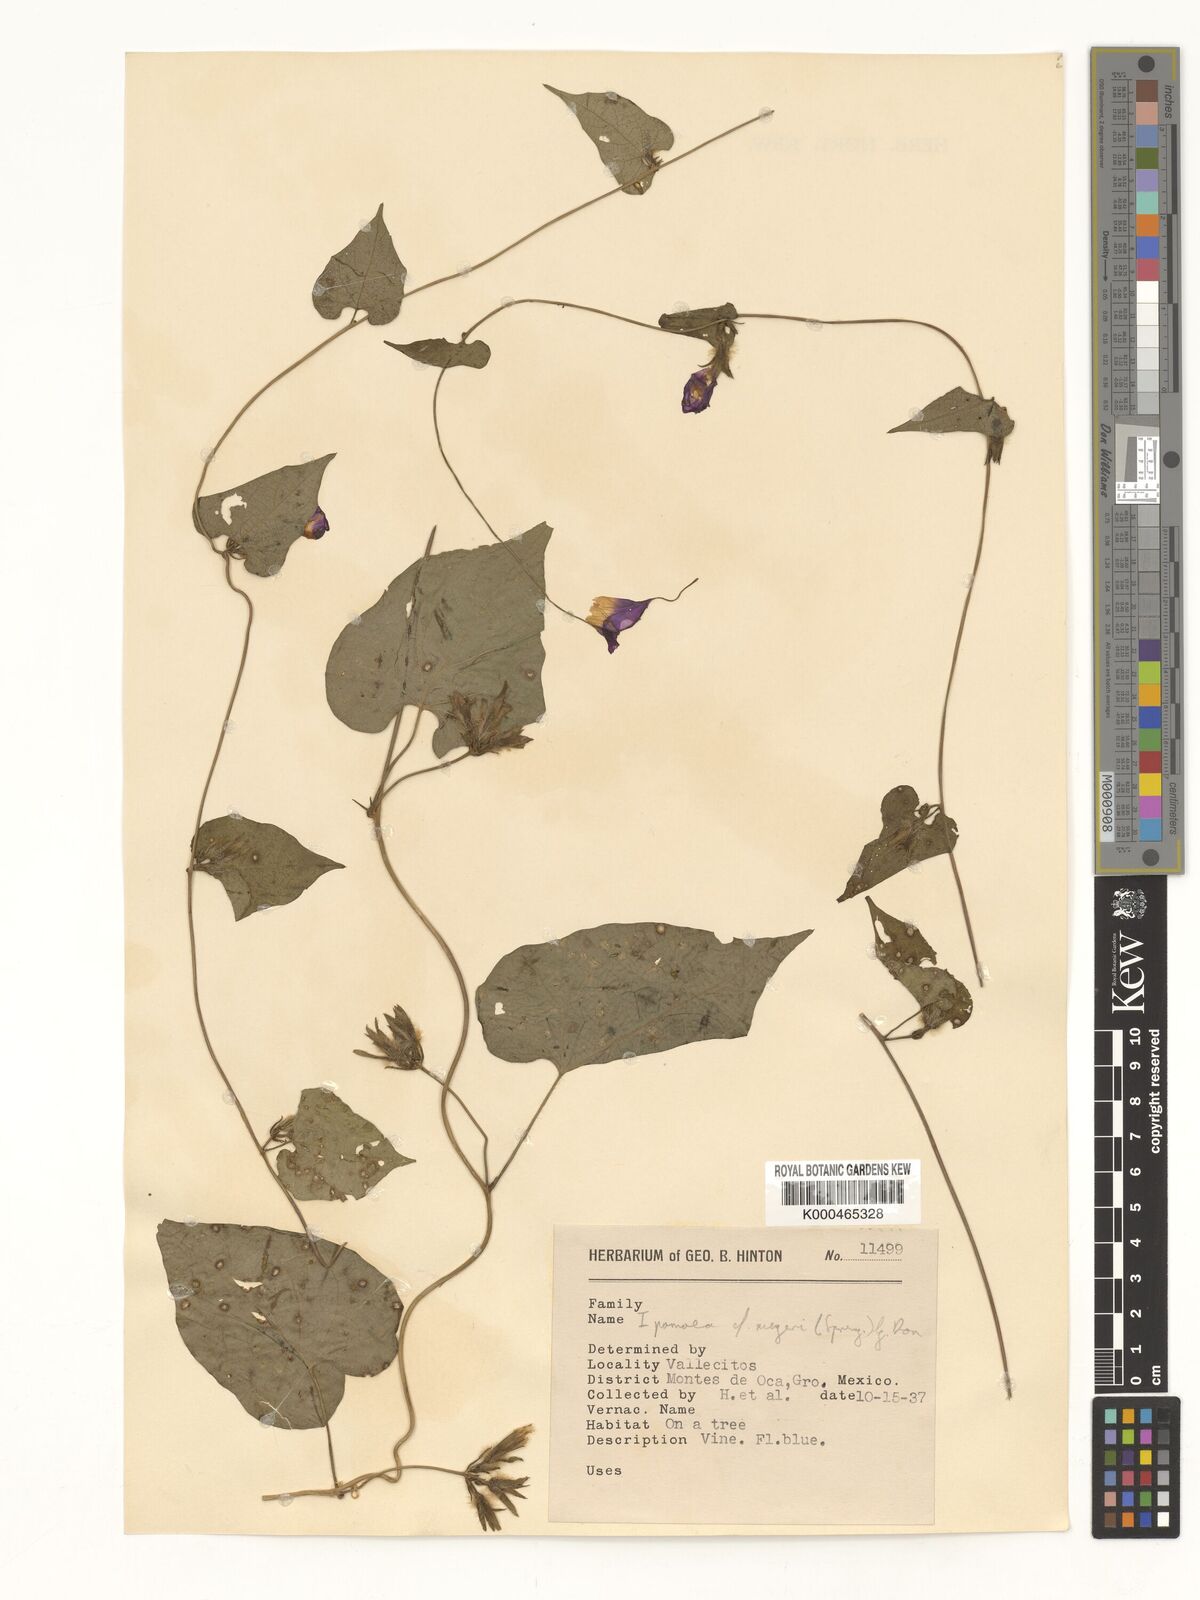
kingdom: Plantae
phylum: Tracheophyta
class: Magnoliopsida
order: Solanales
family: Convolvulaceae
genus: Ipomoea
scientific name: Ipomoea meyeri
